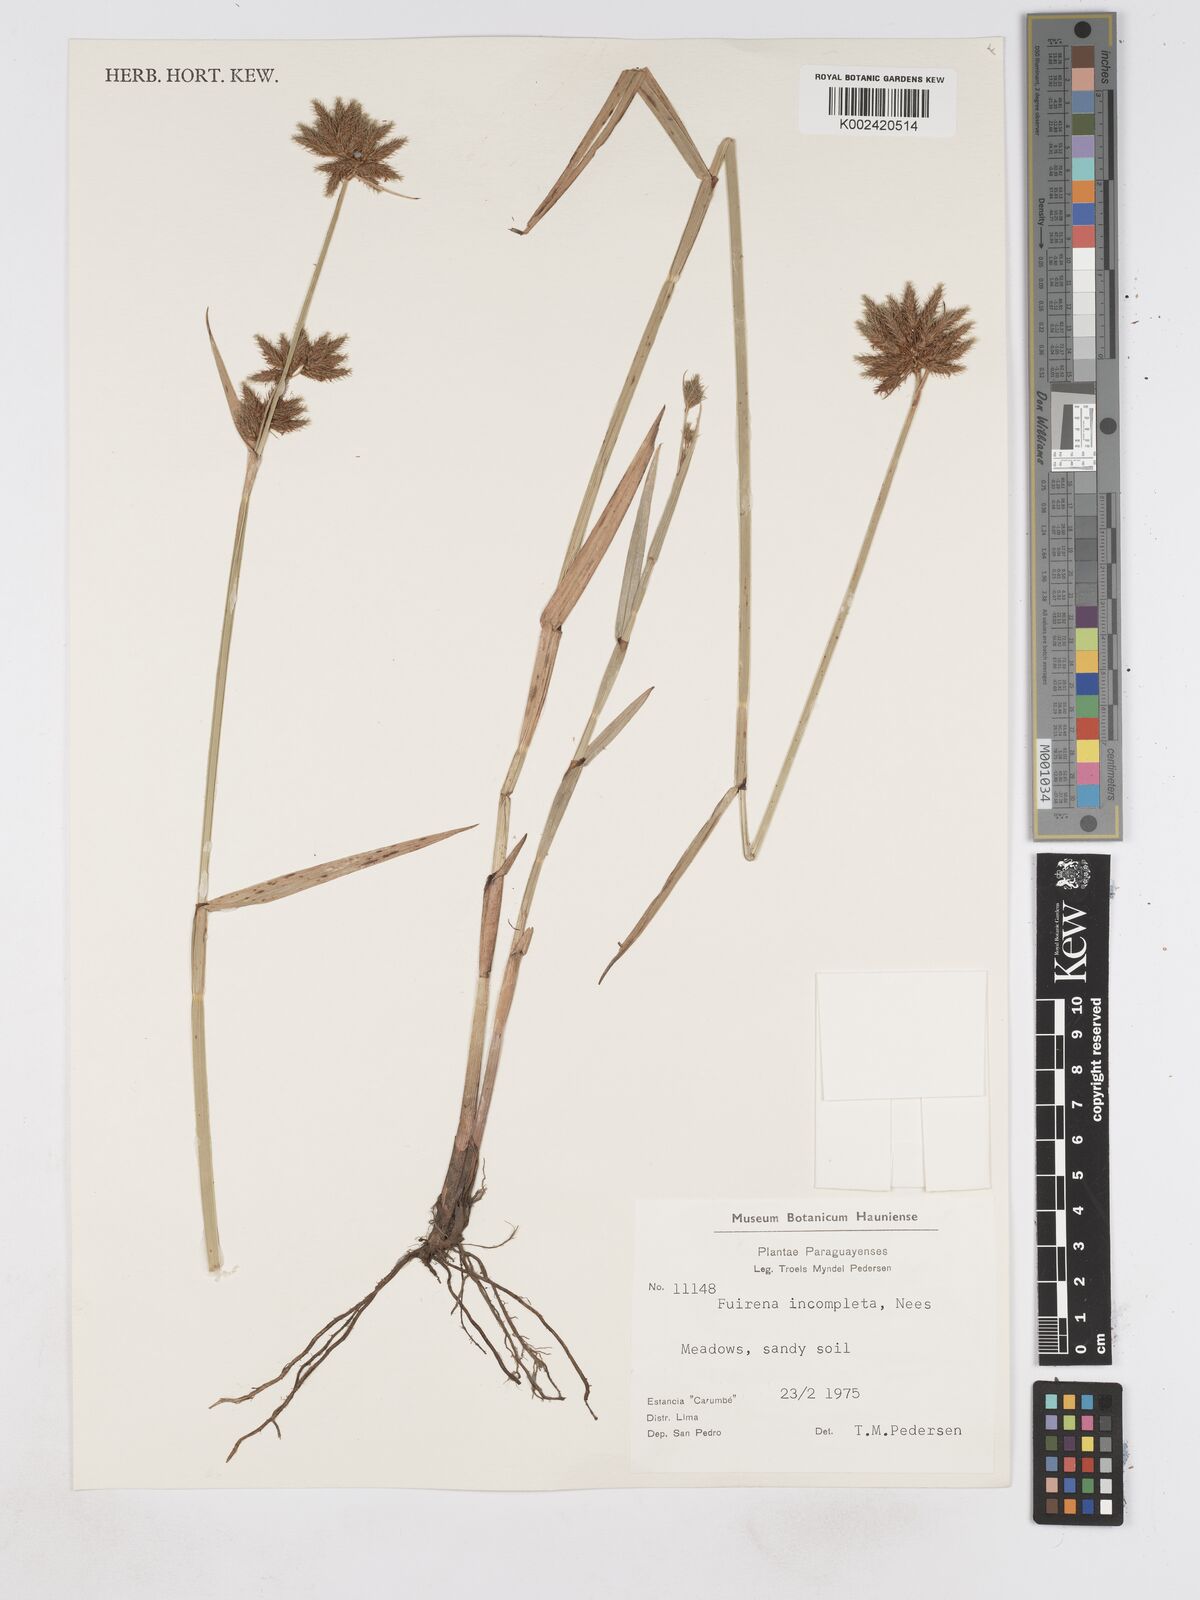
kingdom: Plantae
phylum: Tracheophyta
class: Liliopsida
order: Poales
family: Cyperaceae
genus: Fuirena
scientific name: Fuirena incompleta
